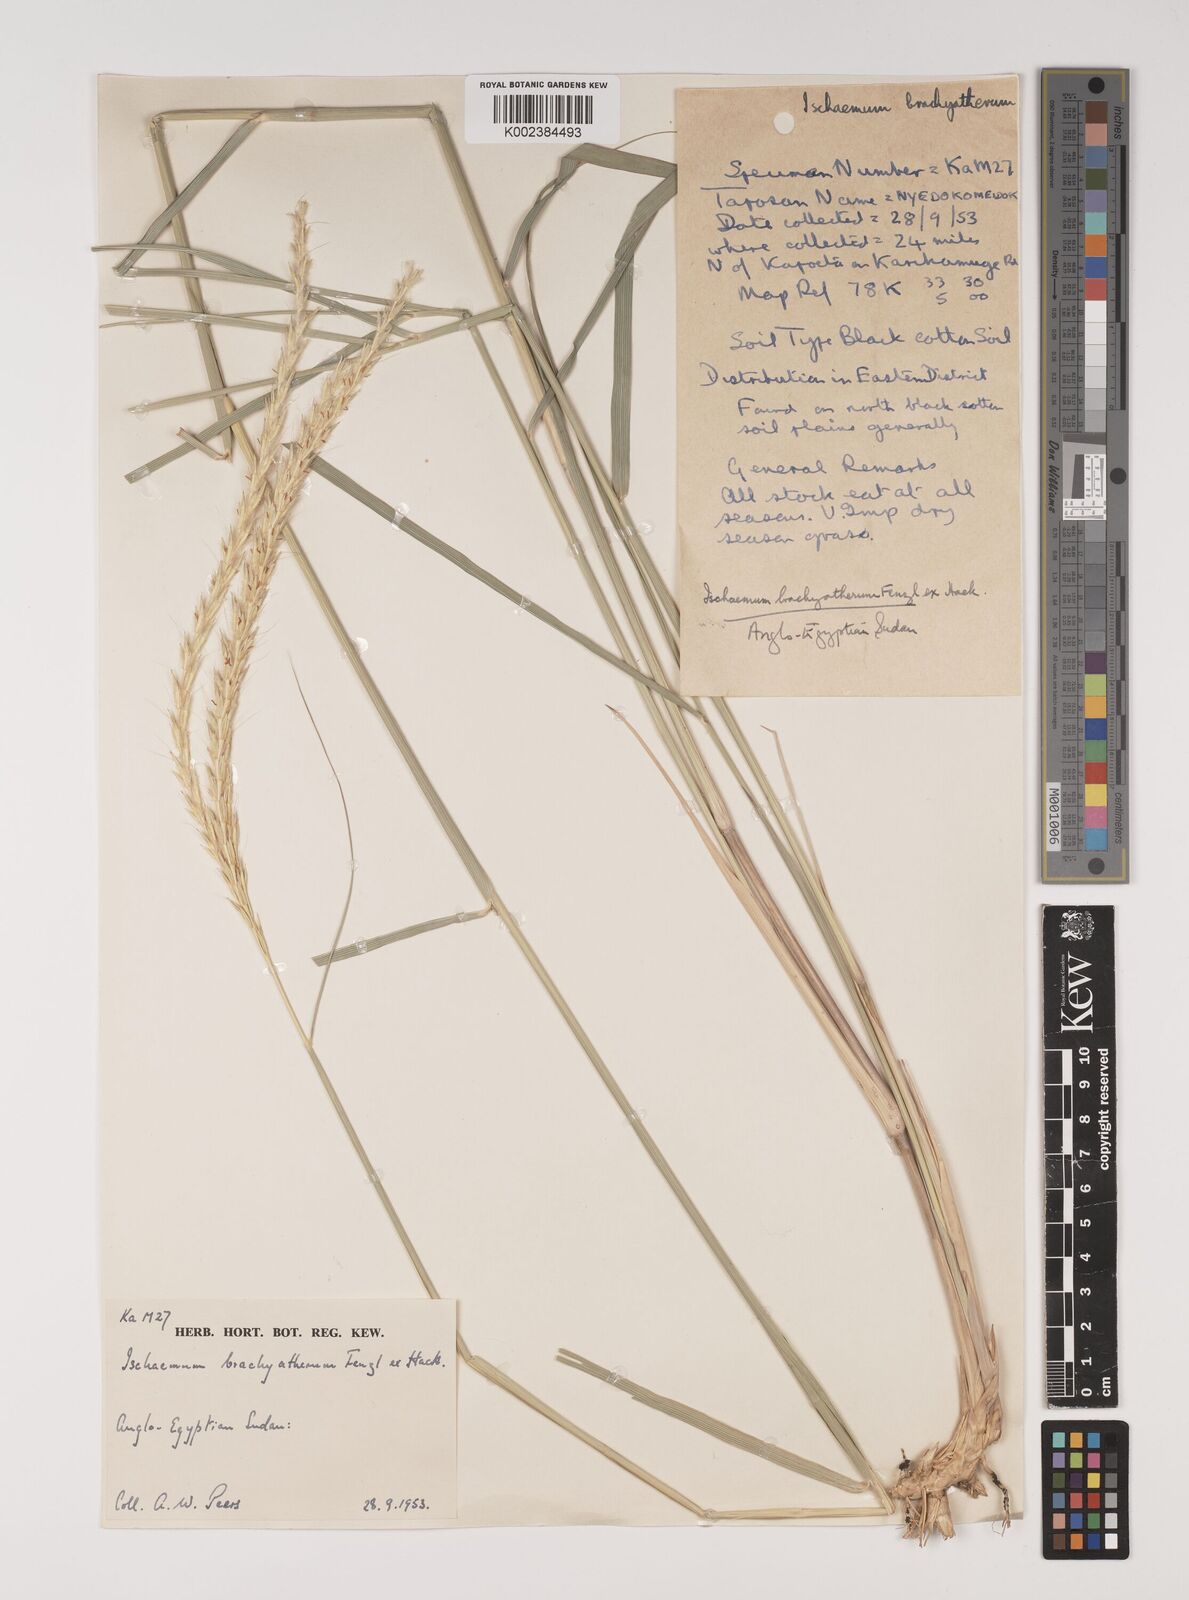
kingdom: Plantae
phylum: Tracheophyta
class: Liliopsida
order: Poales
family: Poaceae
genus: Ischaemum
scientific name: Ischaemum afrum
